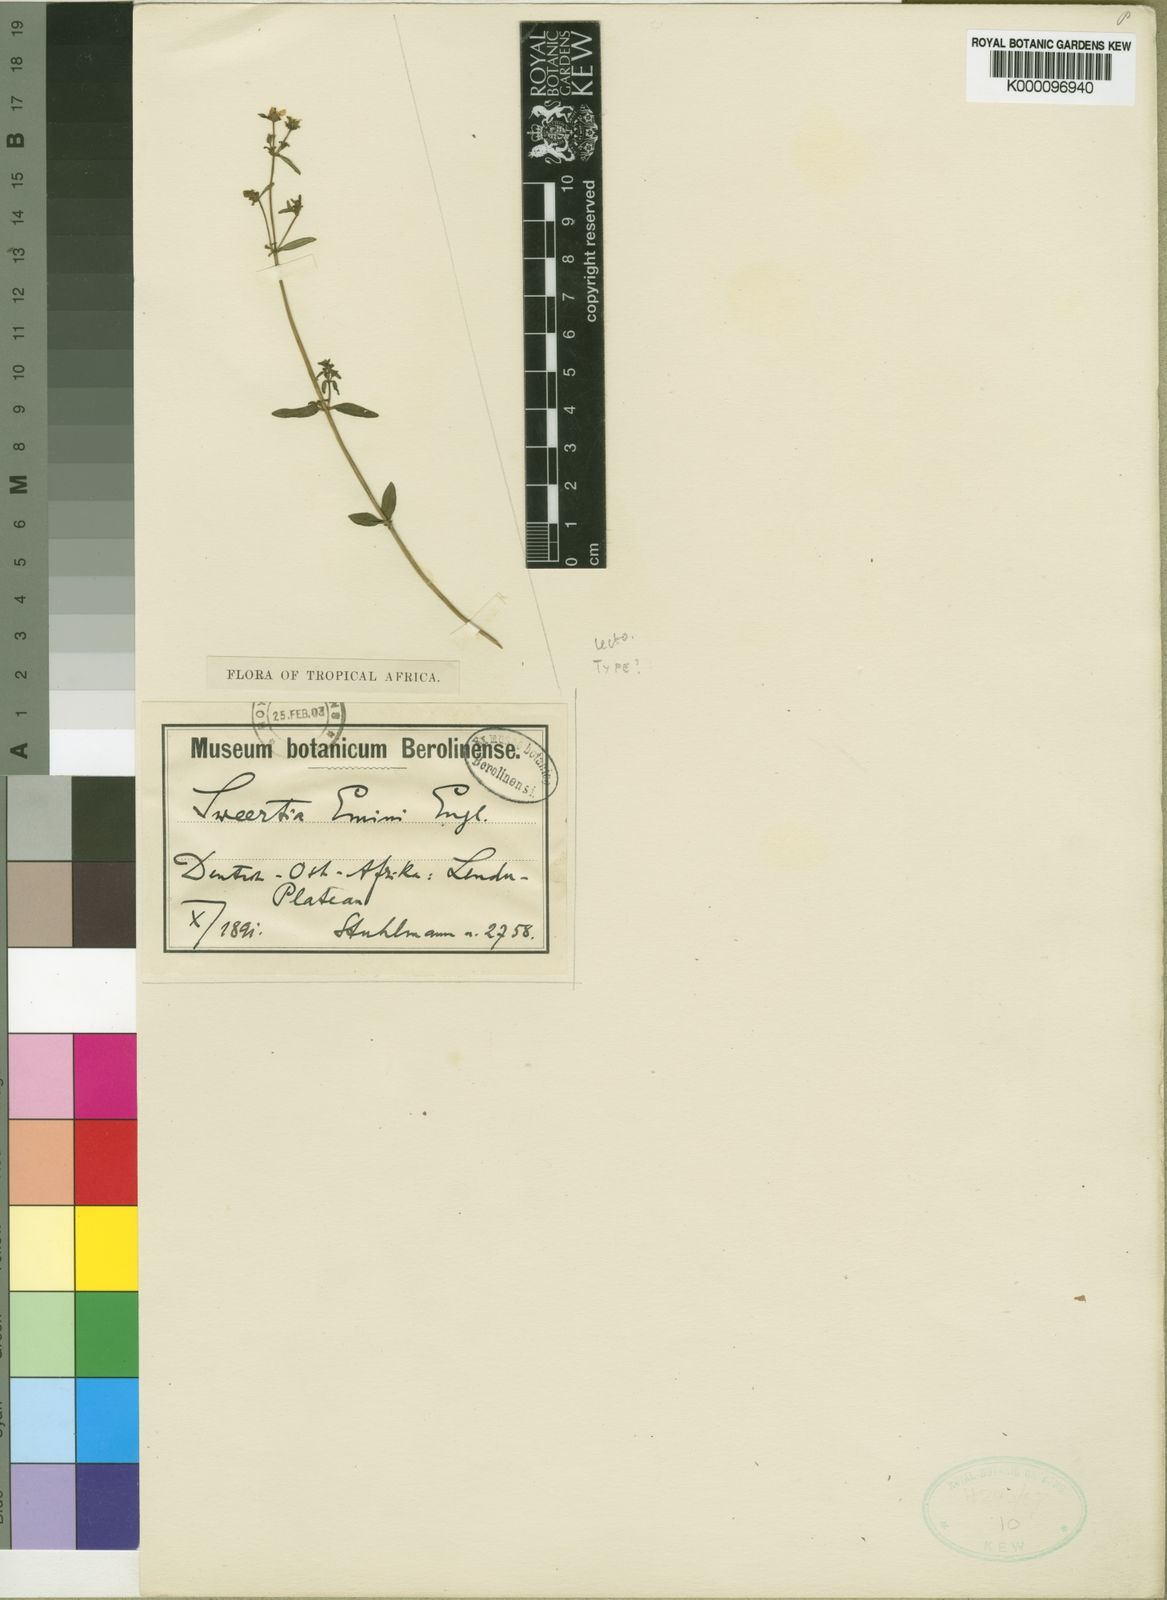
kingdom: Plantae
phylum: Tracheophyta
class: Magnoliopsida
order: Gentianales
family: Gentianaceae
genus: Swertia
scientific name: Swertia eminii
